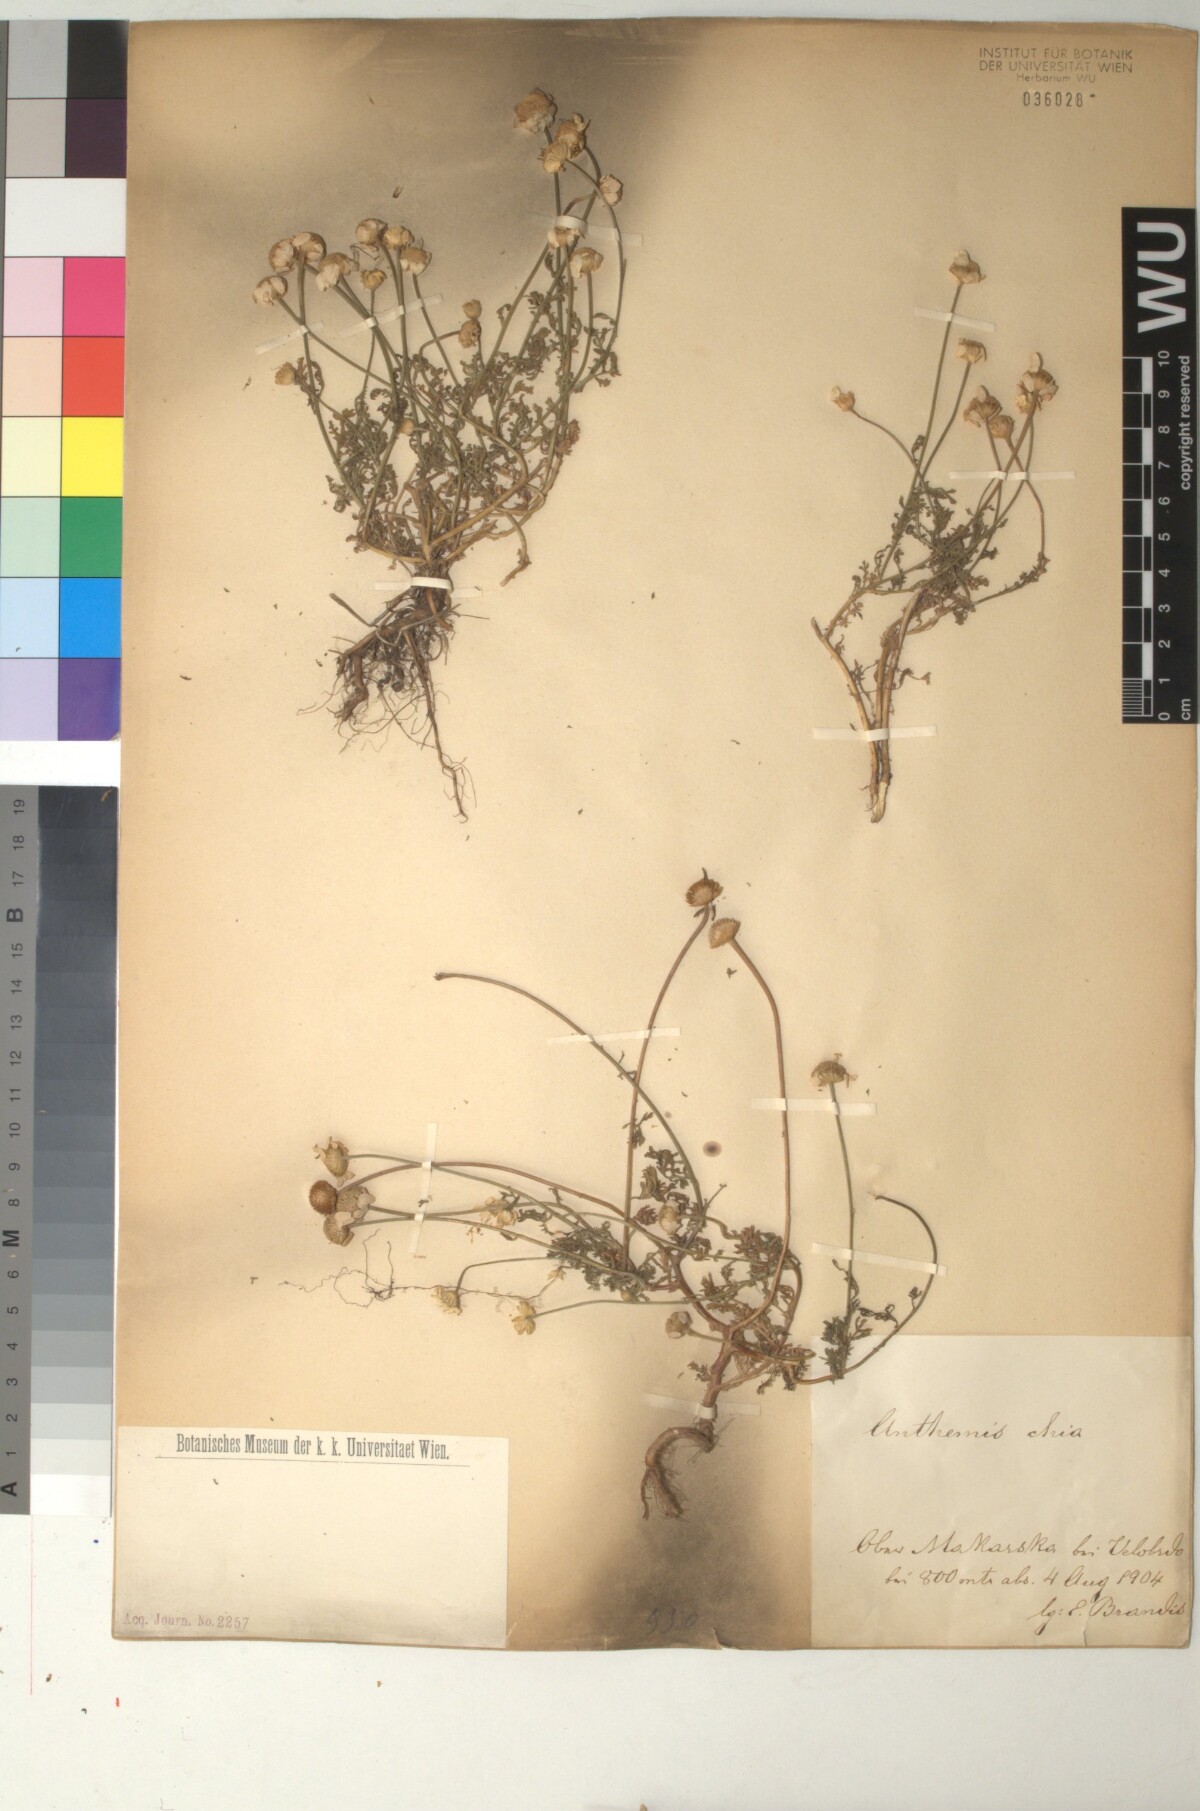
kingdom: Plantae
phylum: Tracheophyta
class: Magnoliopsida
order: Asterales
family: Asteraceae
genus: Anthemis
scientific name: Anthemis chia
